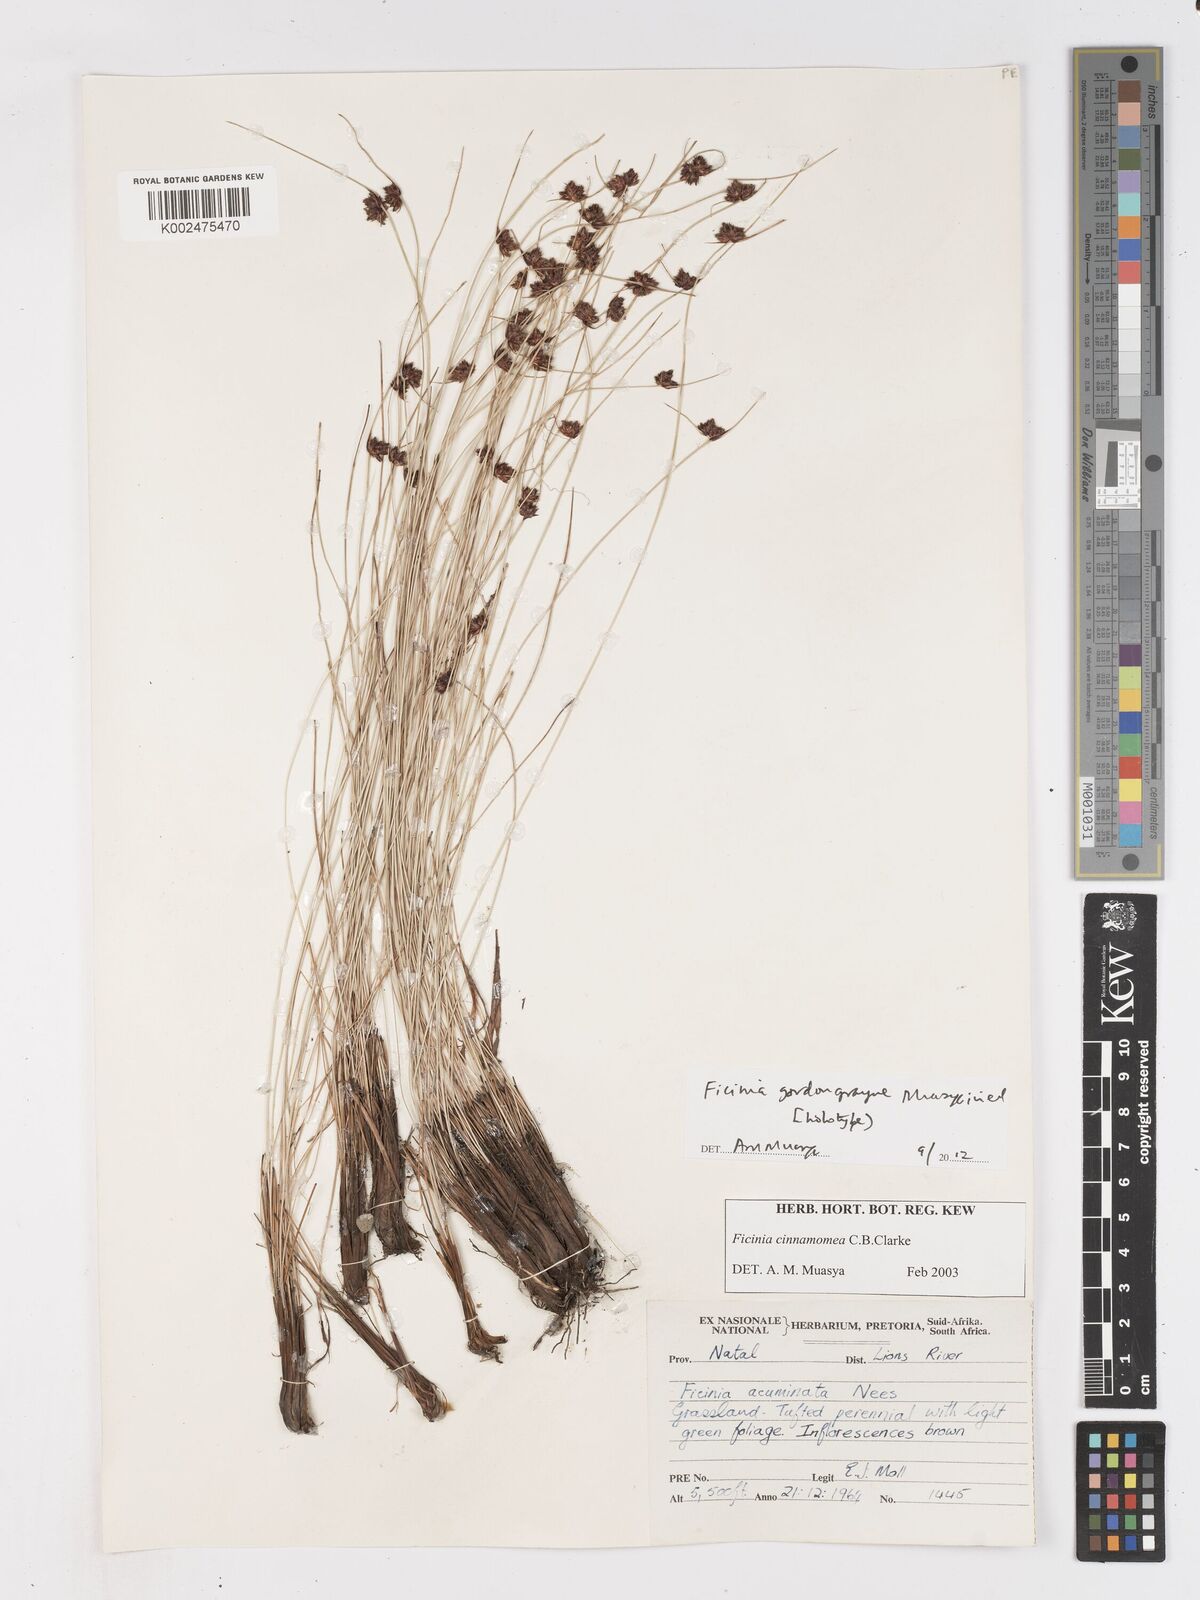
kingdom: Plantae
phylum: Tracheophyta
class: Liliopsida
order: Poales
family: Cyperaceae
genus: Ficinia
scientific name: Ficinia cinnamomea
